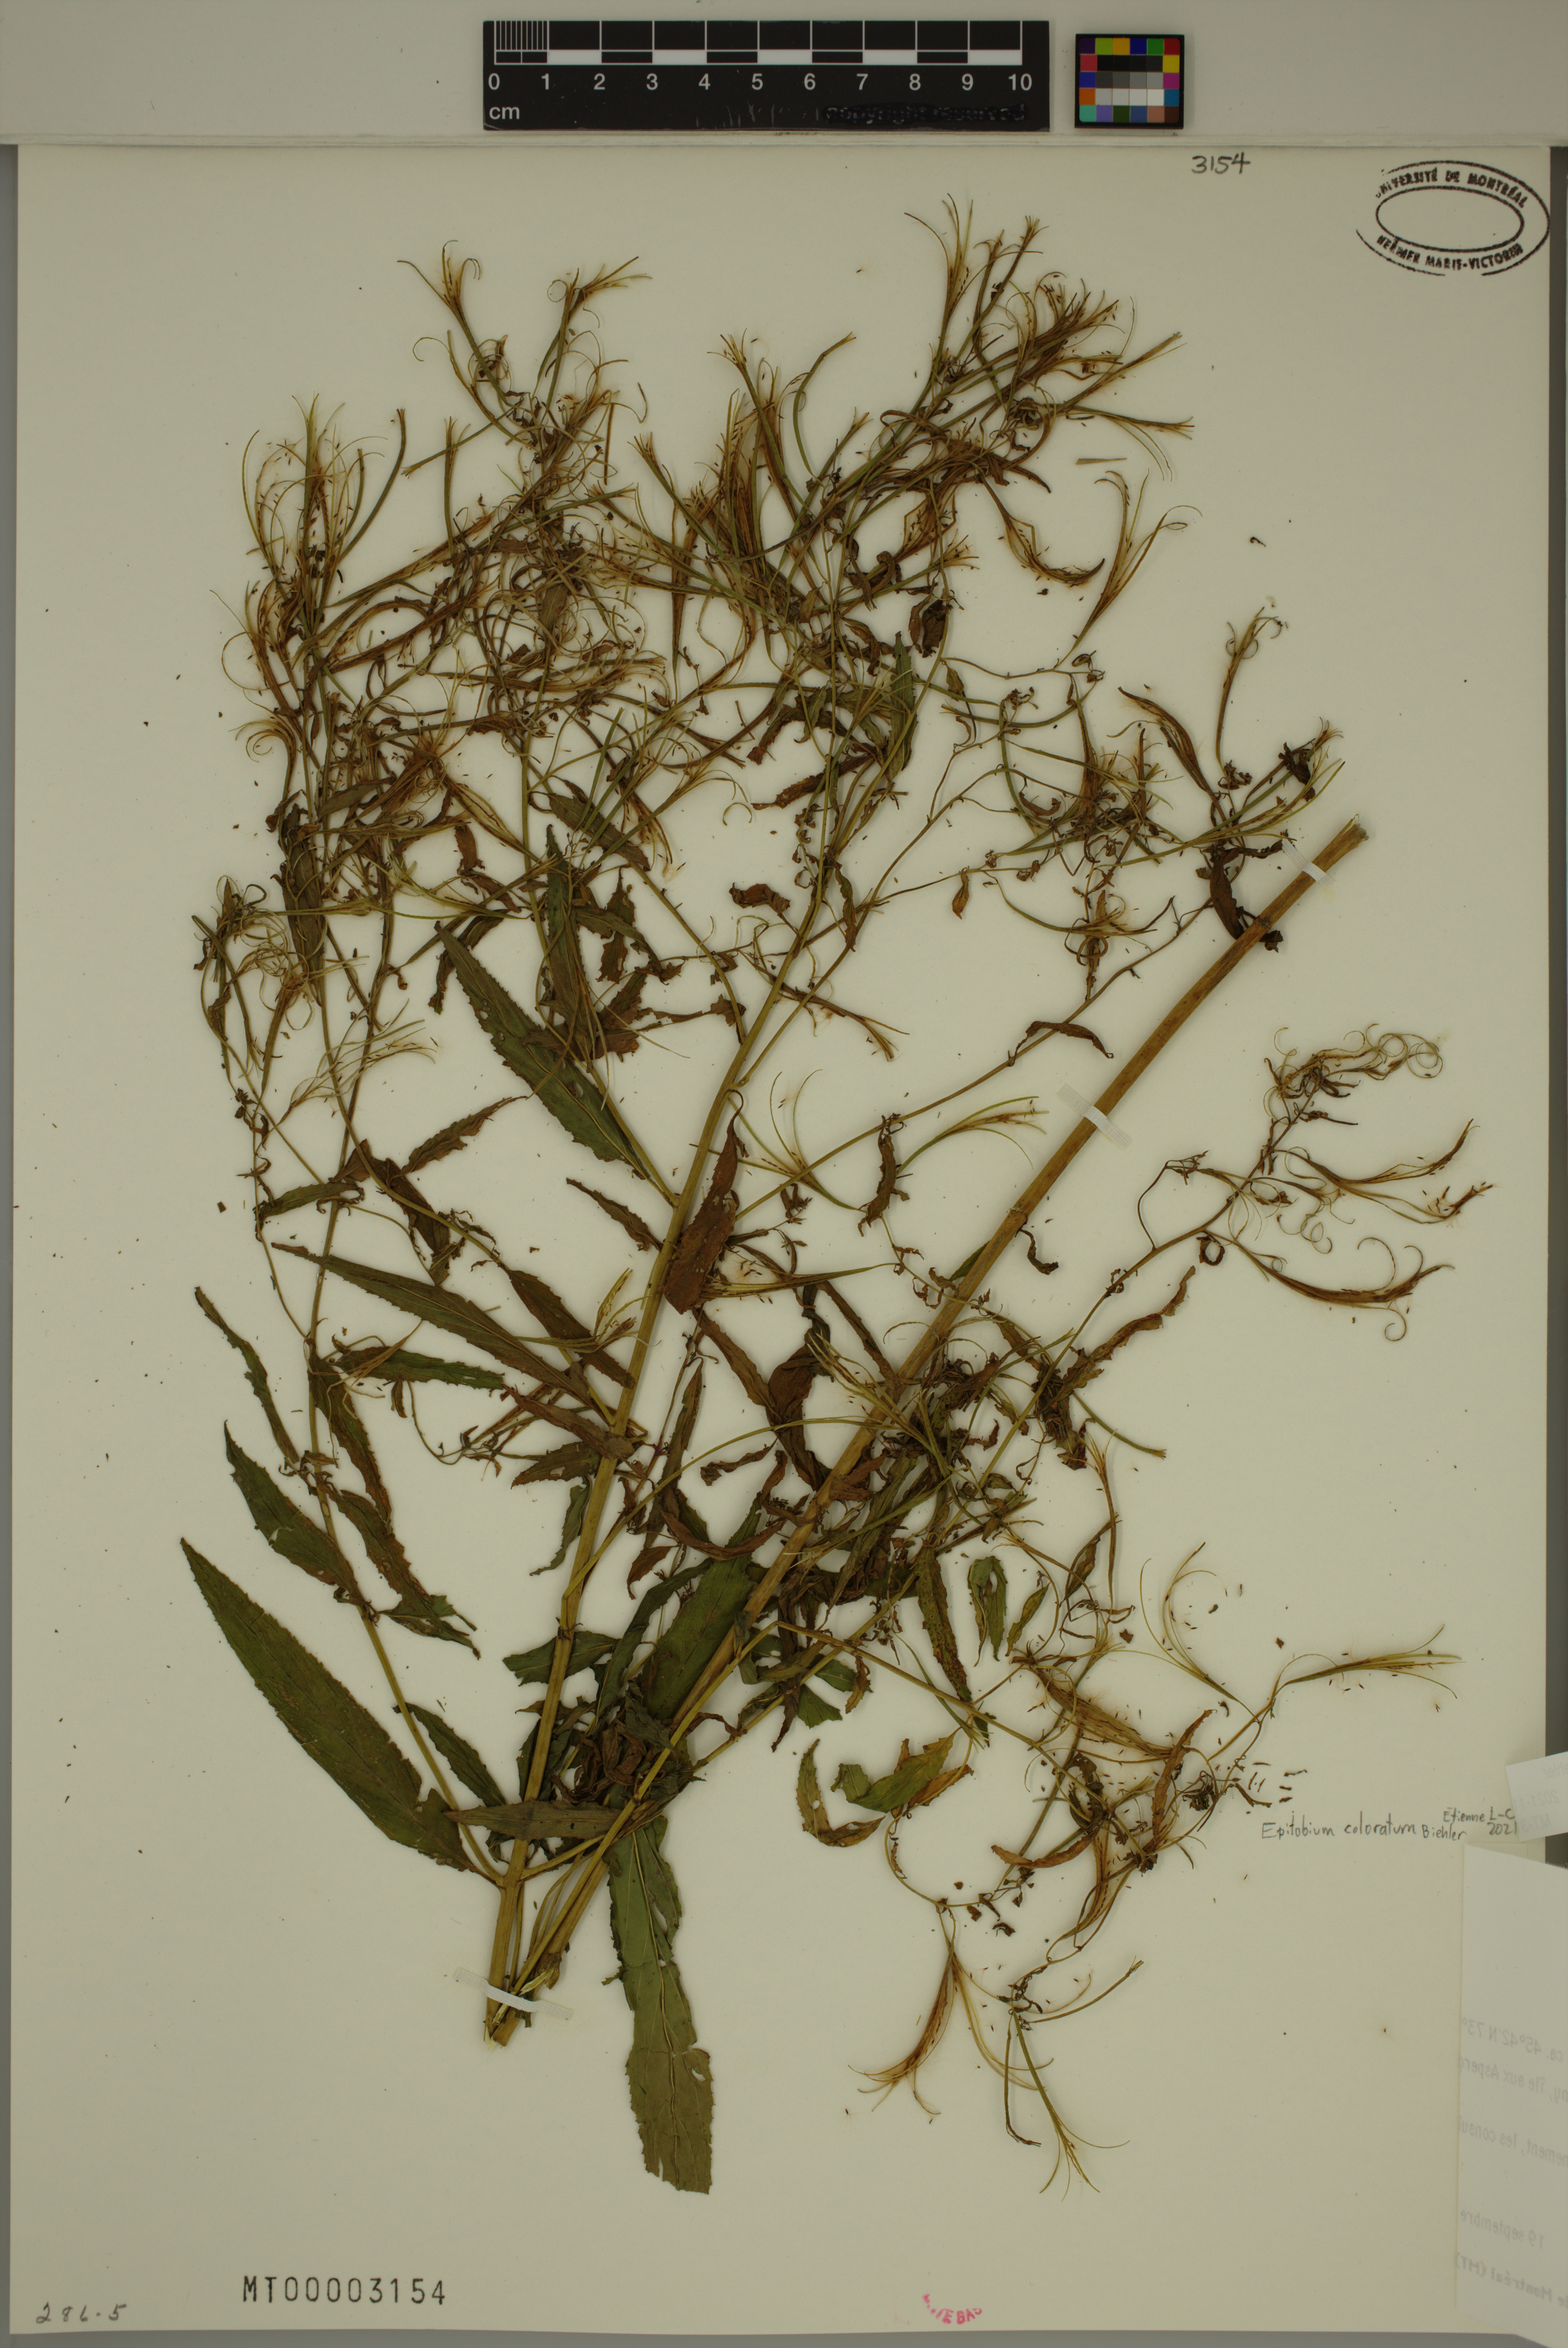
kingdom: Plantae
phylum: Tracheophyta
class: Magnoliopsida
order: Myrtales
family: Onagraceae
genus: Epilobium
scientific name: Epilobium coloratum
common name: Bronze willowherb
